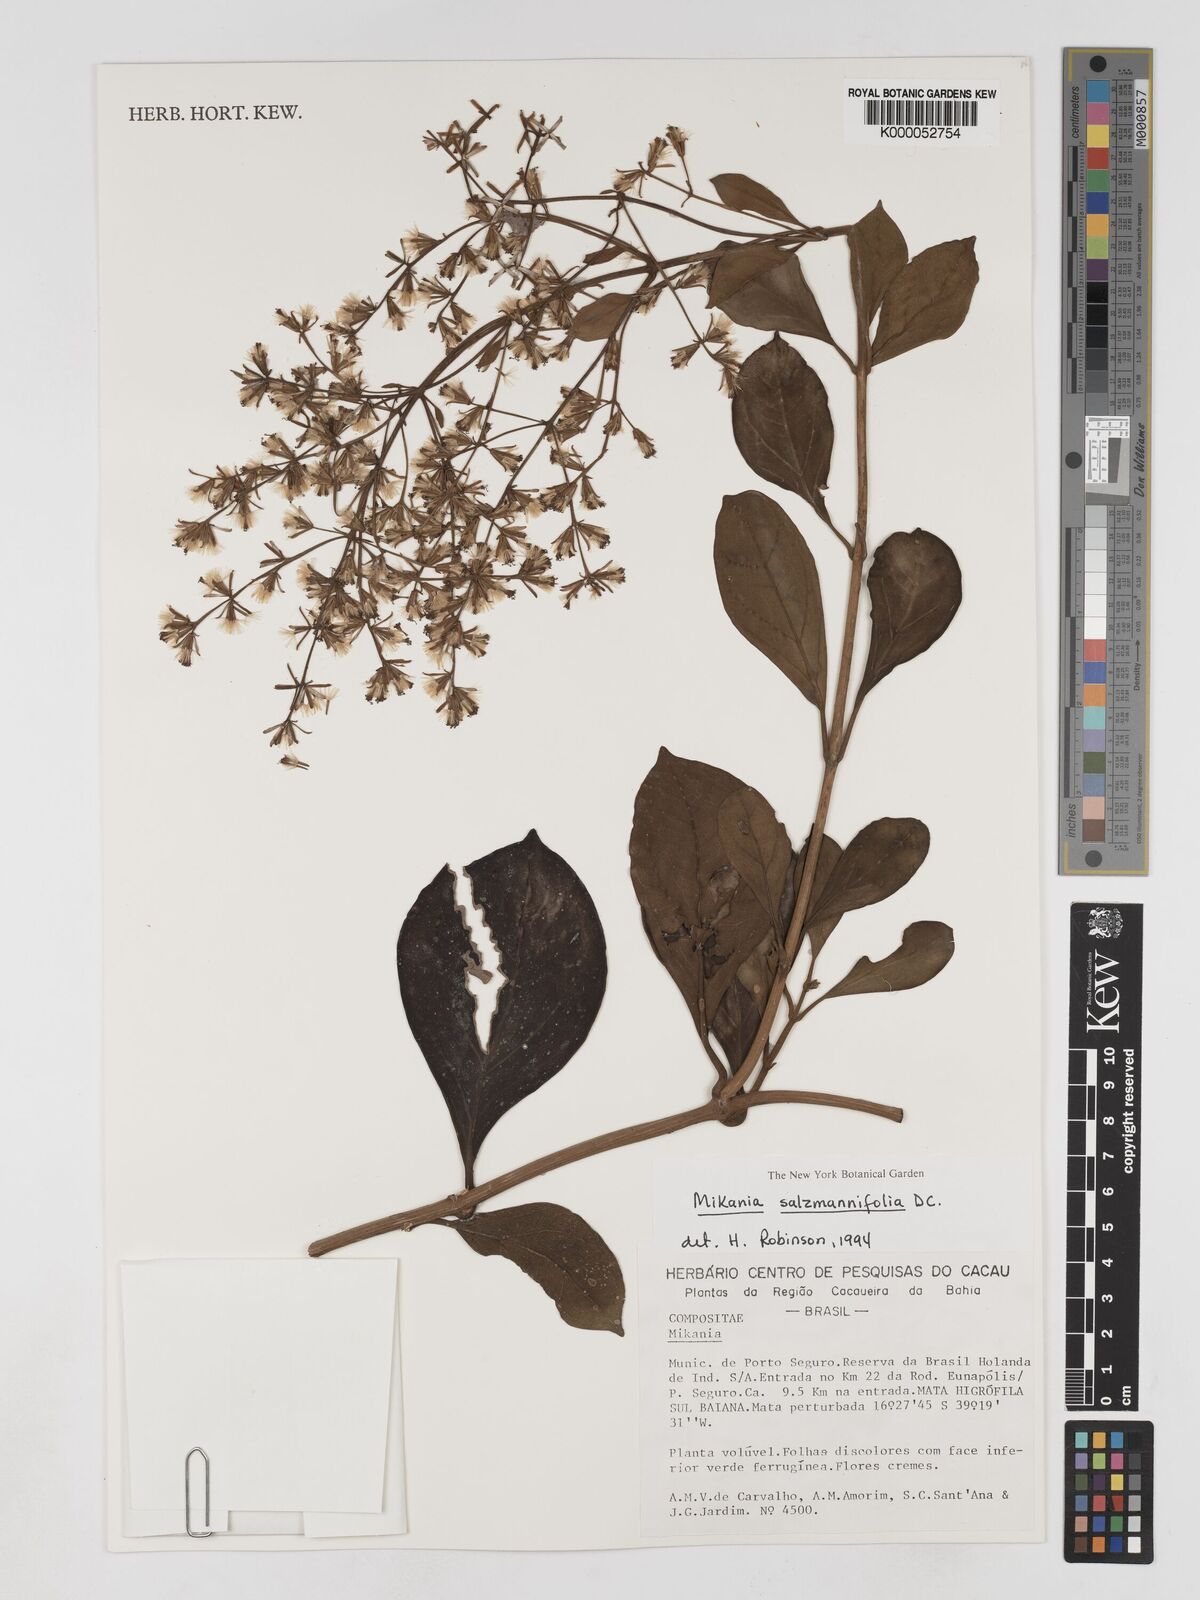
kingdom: Plantae
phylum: Tracheophyta
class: Magnoliopsida
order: Asterales
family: Asteraceae
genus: Mikania
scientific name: Mikania salzmanniifolia
